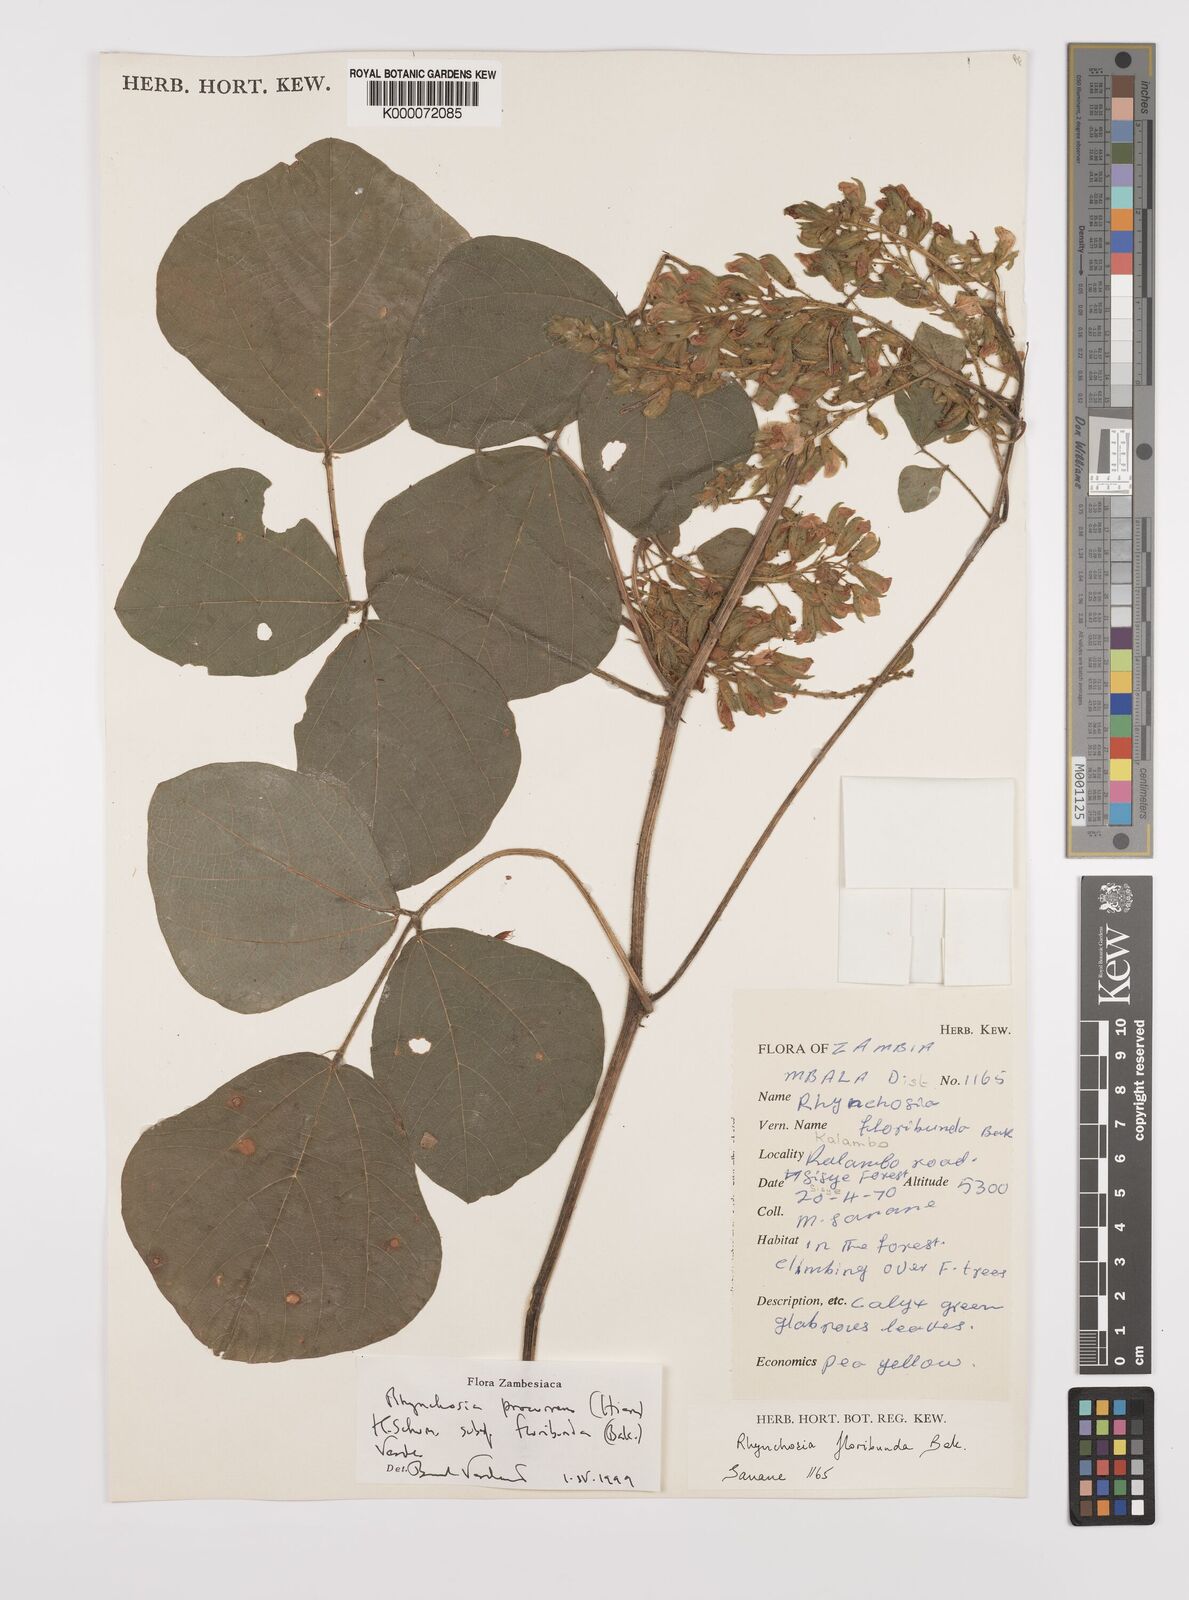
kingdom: Plantae
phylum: Tracheophyta
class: Magnoliopsida
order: Fabales
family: Fabaceae
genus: Rhynchosia
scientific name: Rhynchosia procurrens
